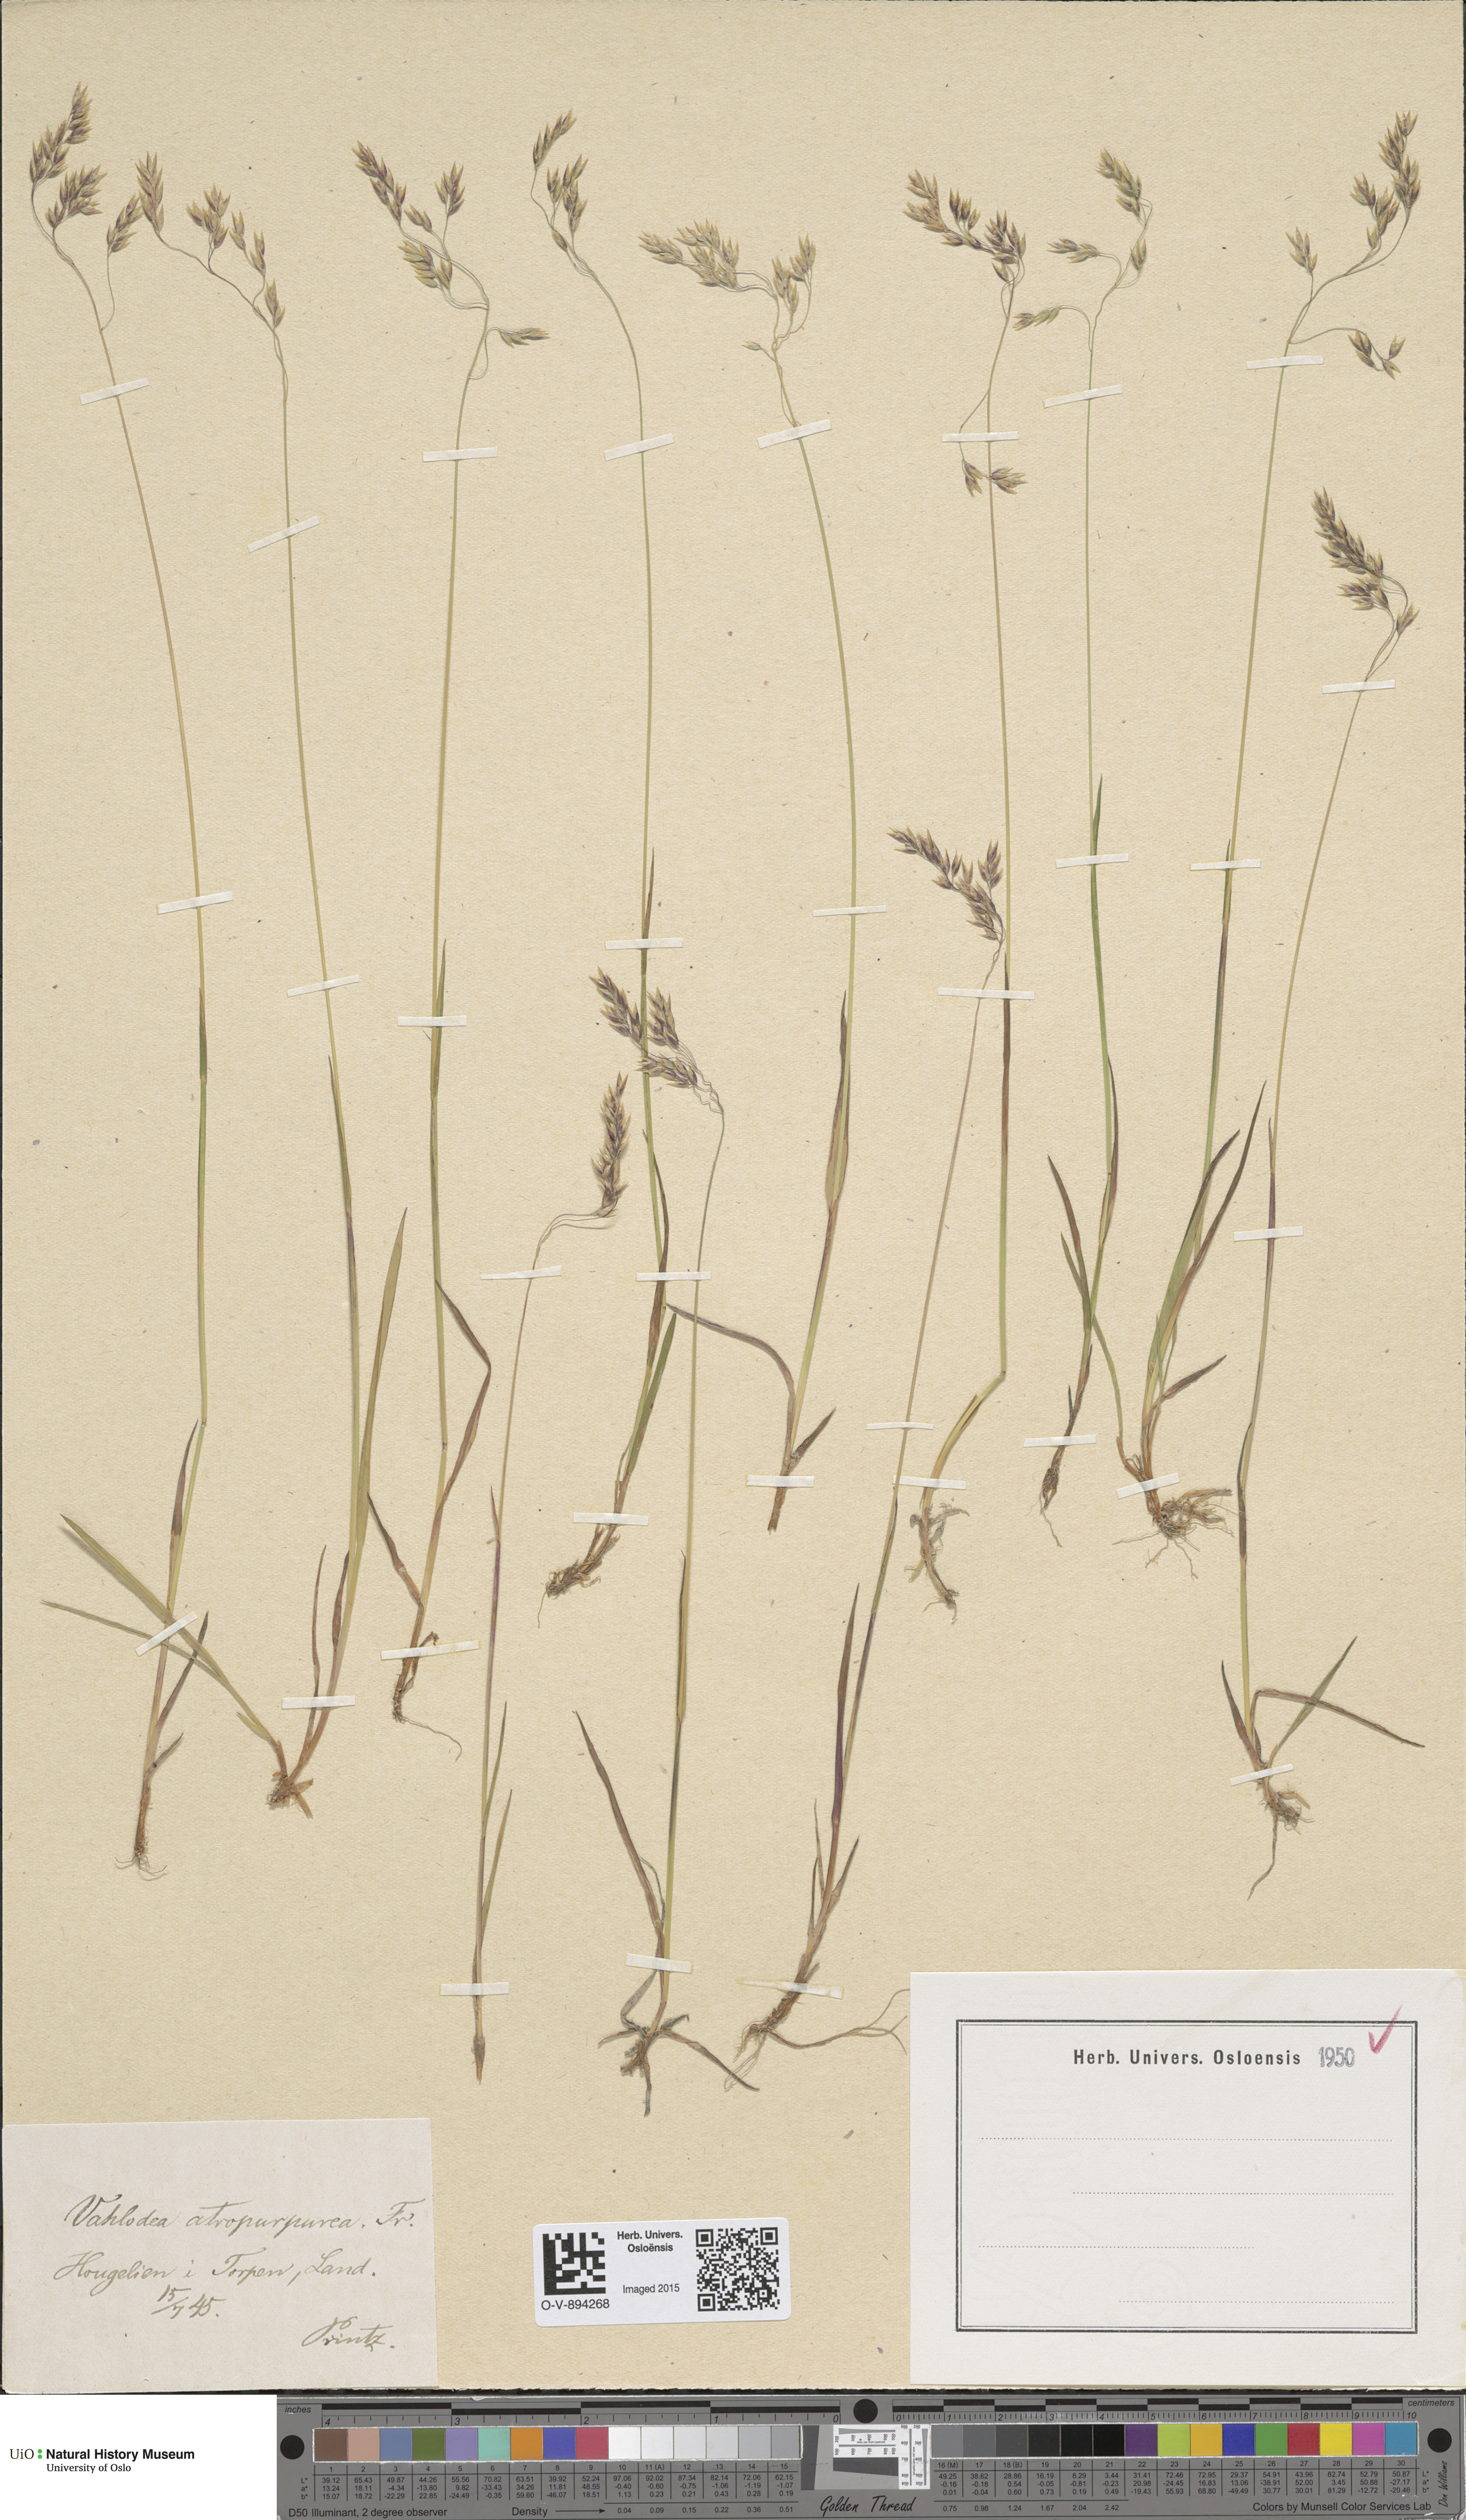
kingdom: Plantae
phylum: Tracheophyta
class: Liliopsida
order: Poales
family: Poaceae
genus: Vahlodea
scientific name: Vahlodea atropurpurea
